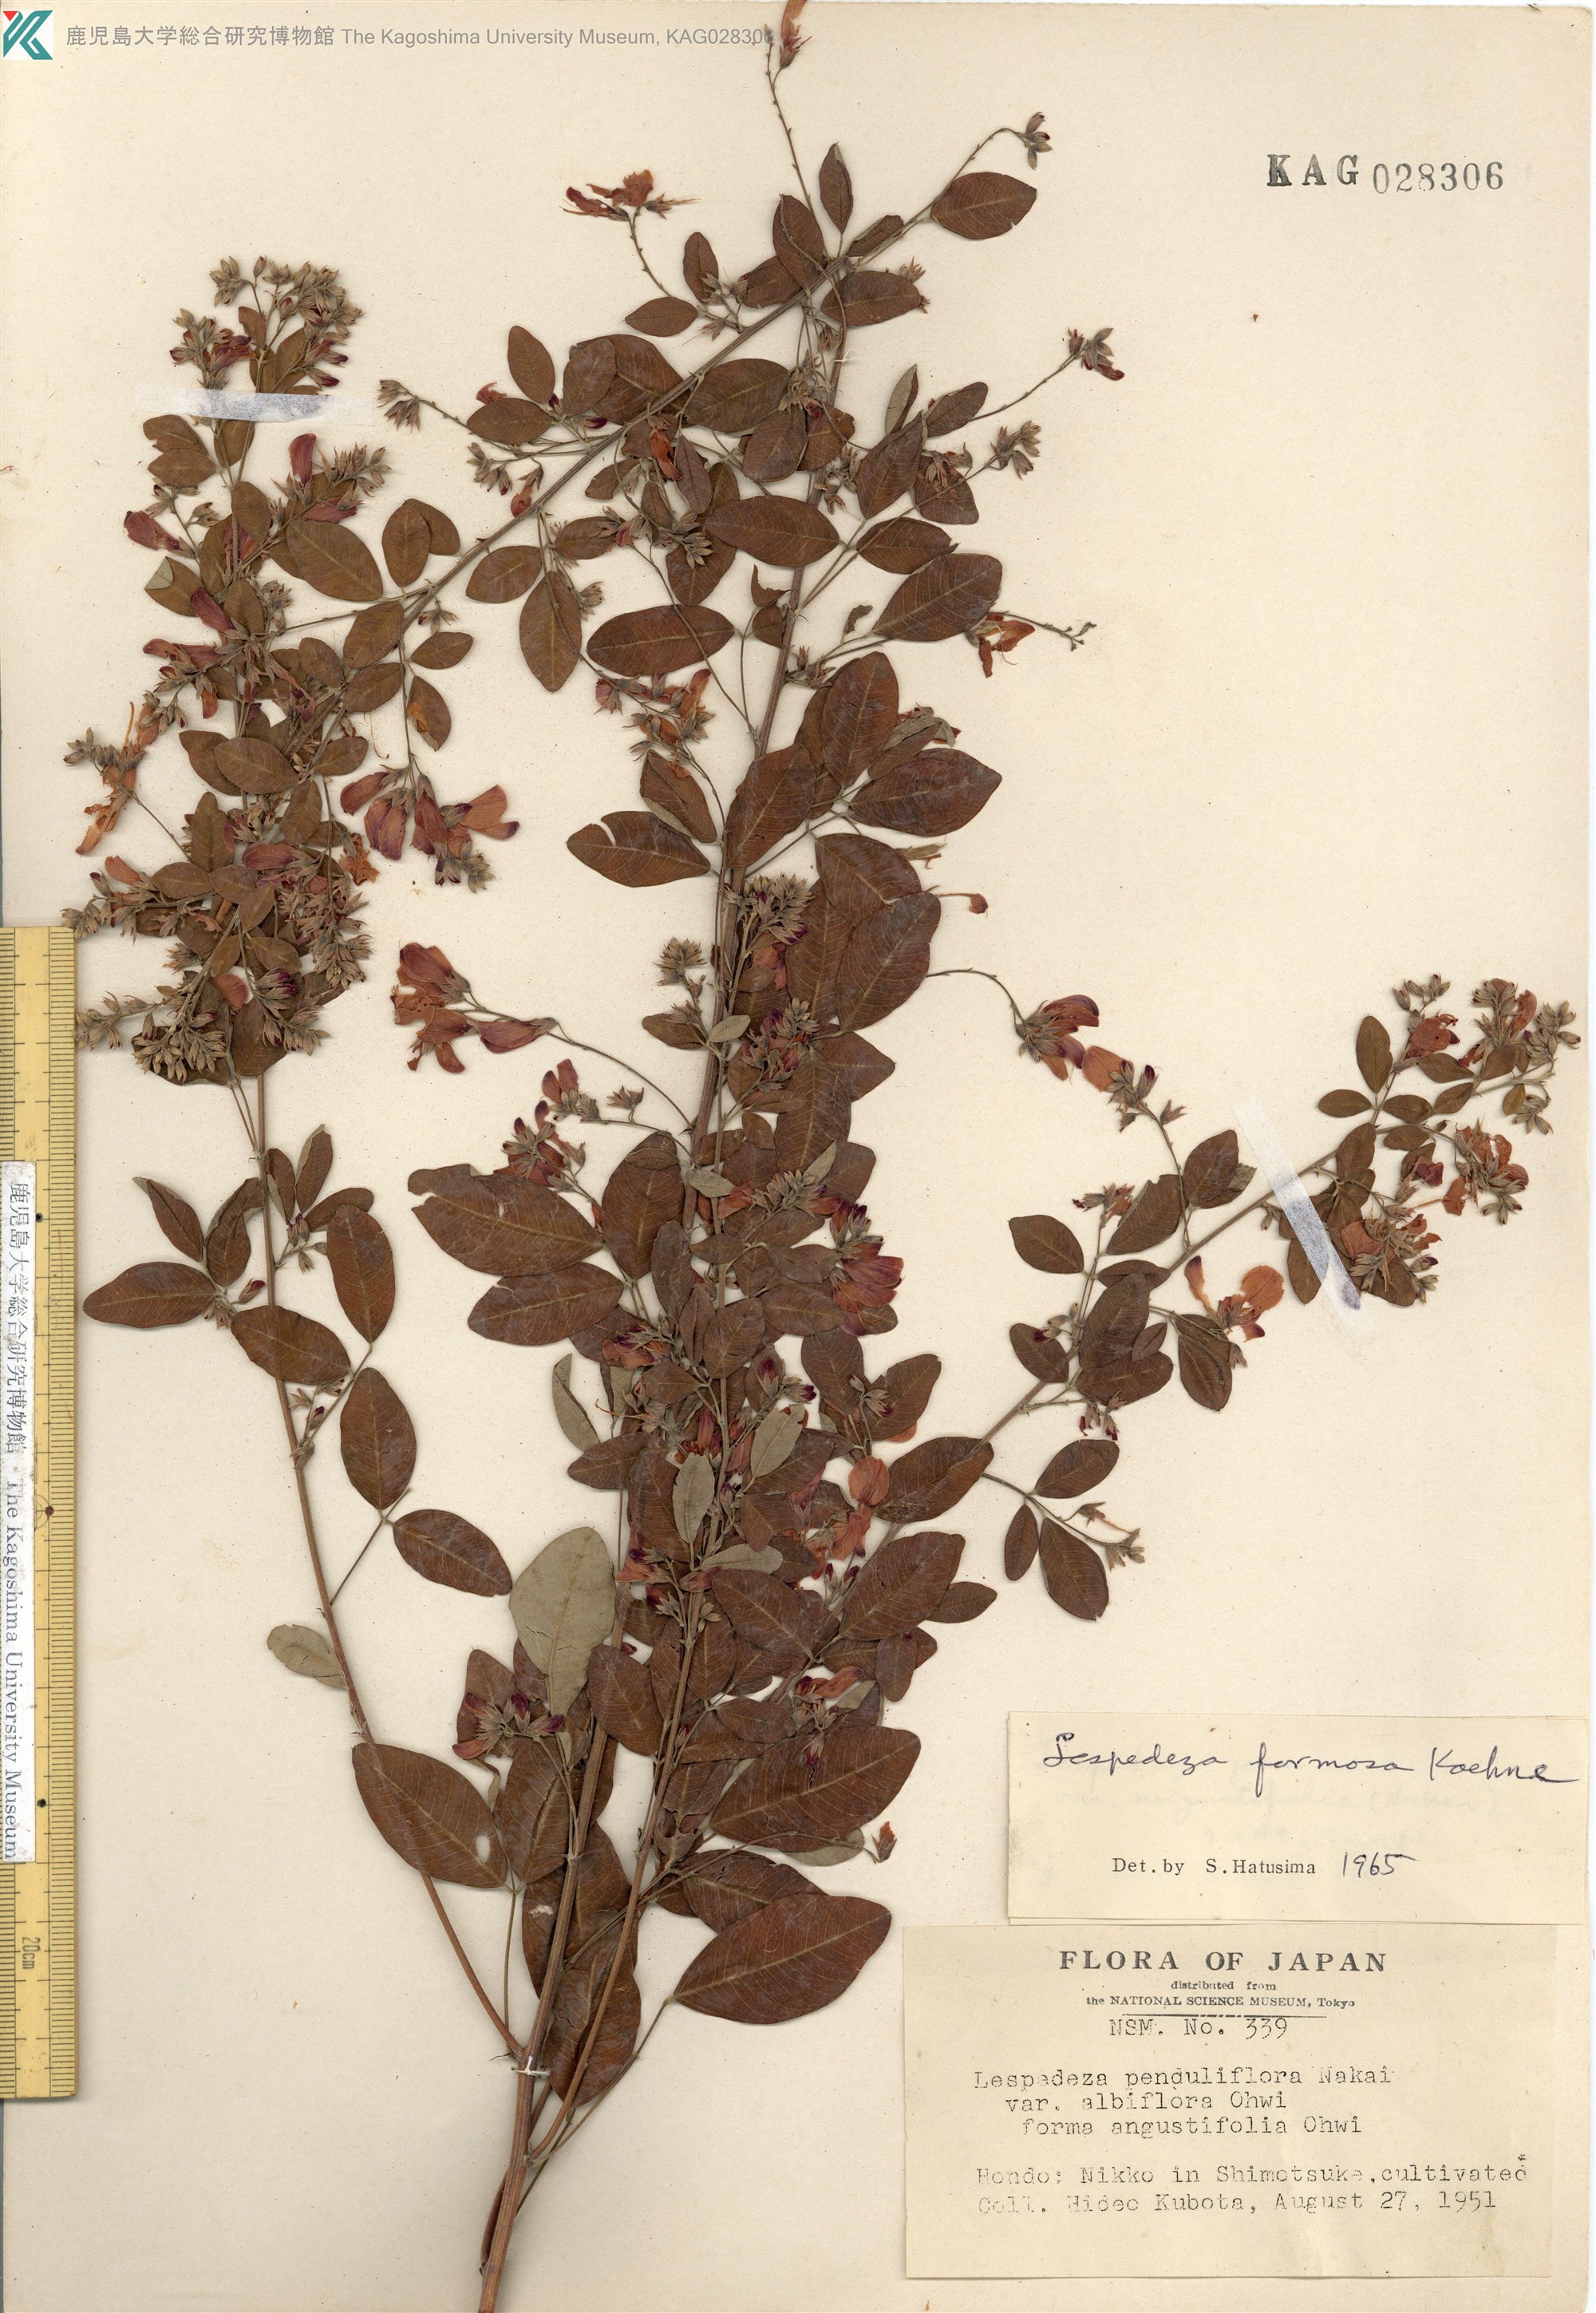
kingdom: Plantae
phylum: Tracheophyta
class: Magnoliopsida
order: Fabales
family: Fabaceae
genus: Lespedeza
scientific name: Lespedeza thunbergii
